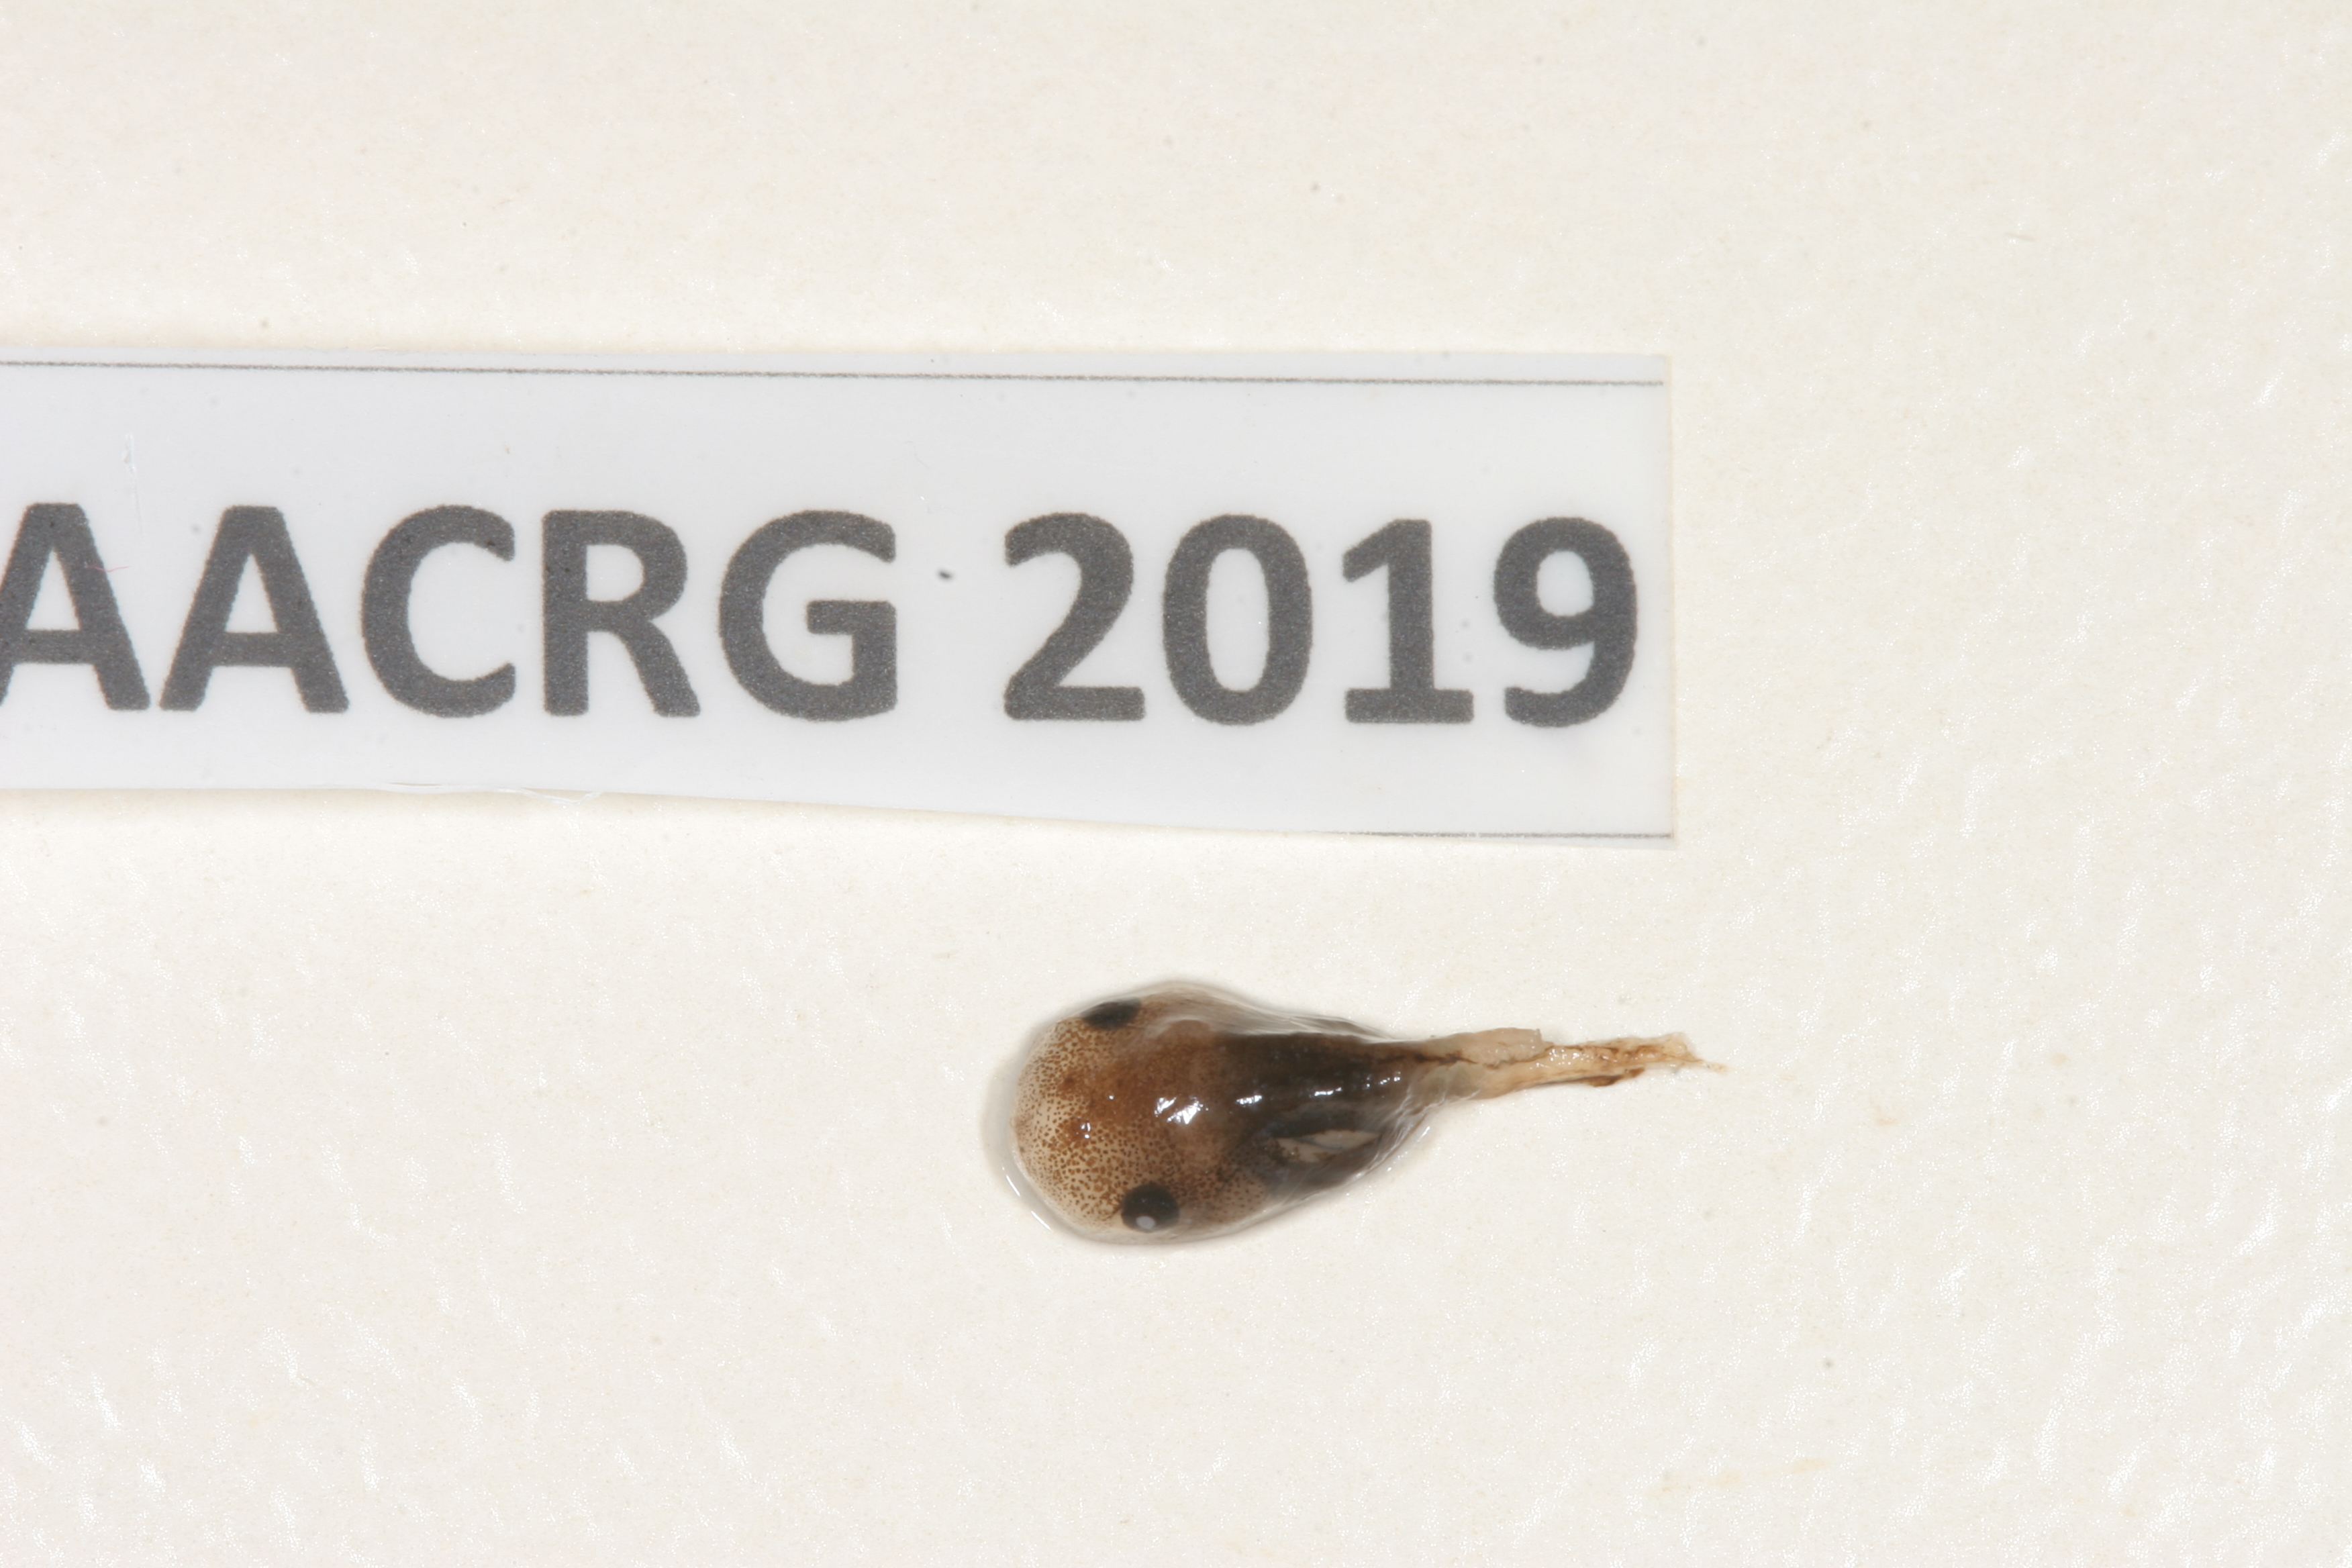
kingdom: Animalia
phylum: Chordata
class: Amphibia
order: Anura
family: Microhylidae
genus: Phrynomantis
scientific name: Phrynomantis bifasciatus
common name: Banded rubber frog
